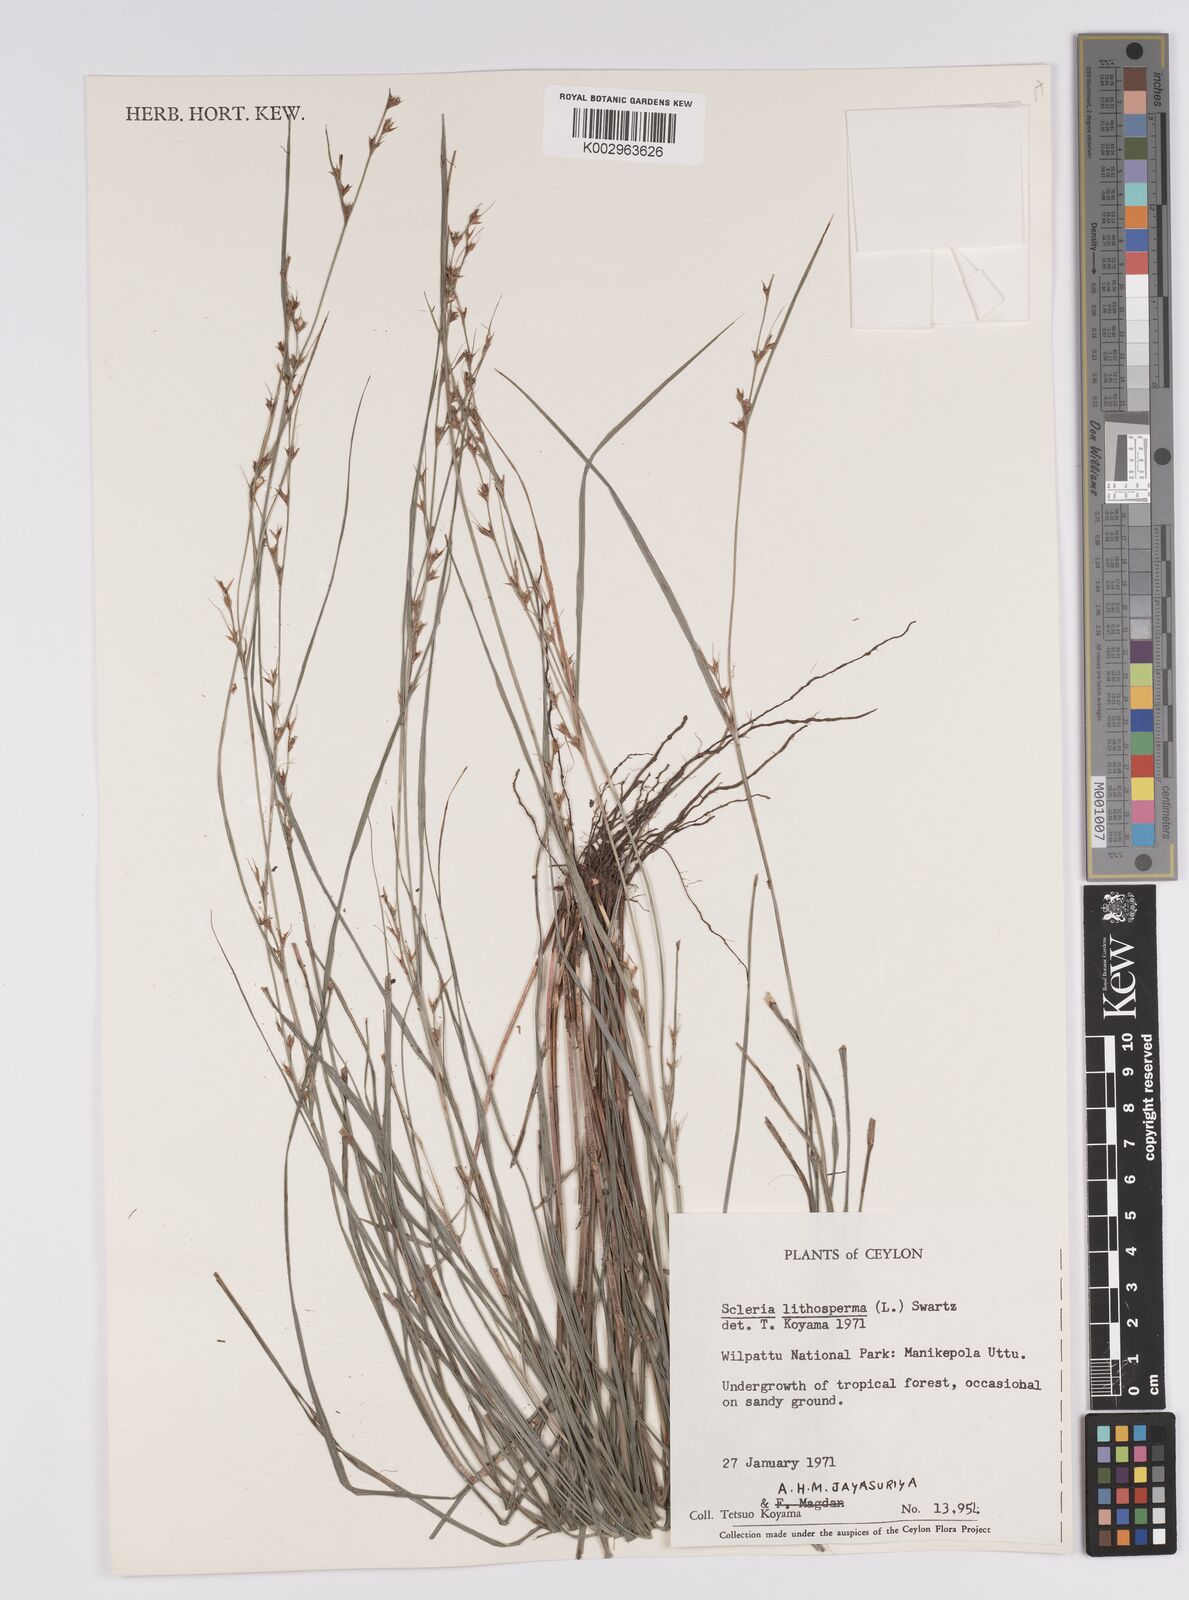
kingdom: Plantae
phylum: Tracheophyta
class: Liliopsida
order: Poales
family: Cyperaceae
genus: Scleria
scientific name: Scleria lithosperma
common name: Florida keys nut-rush
